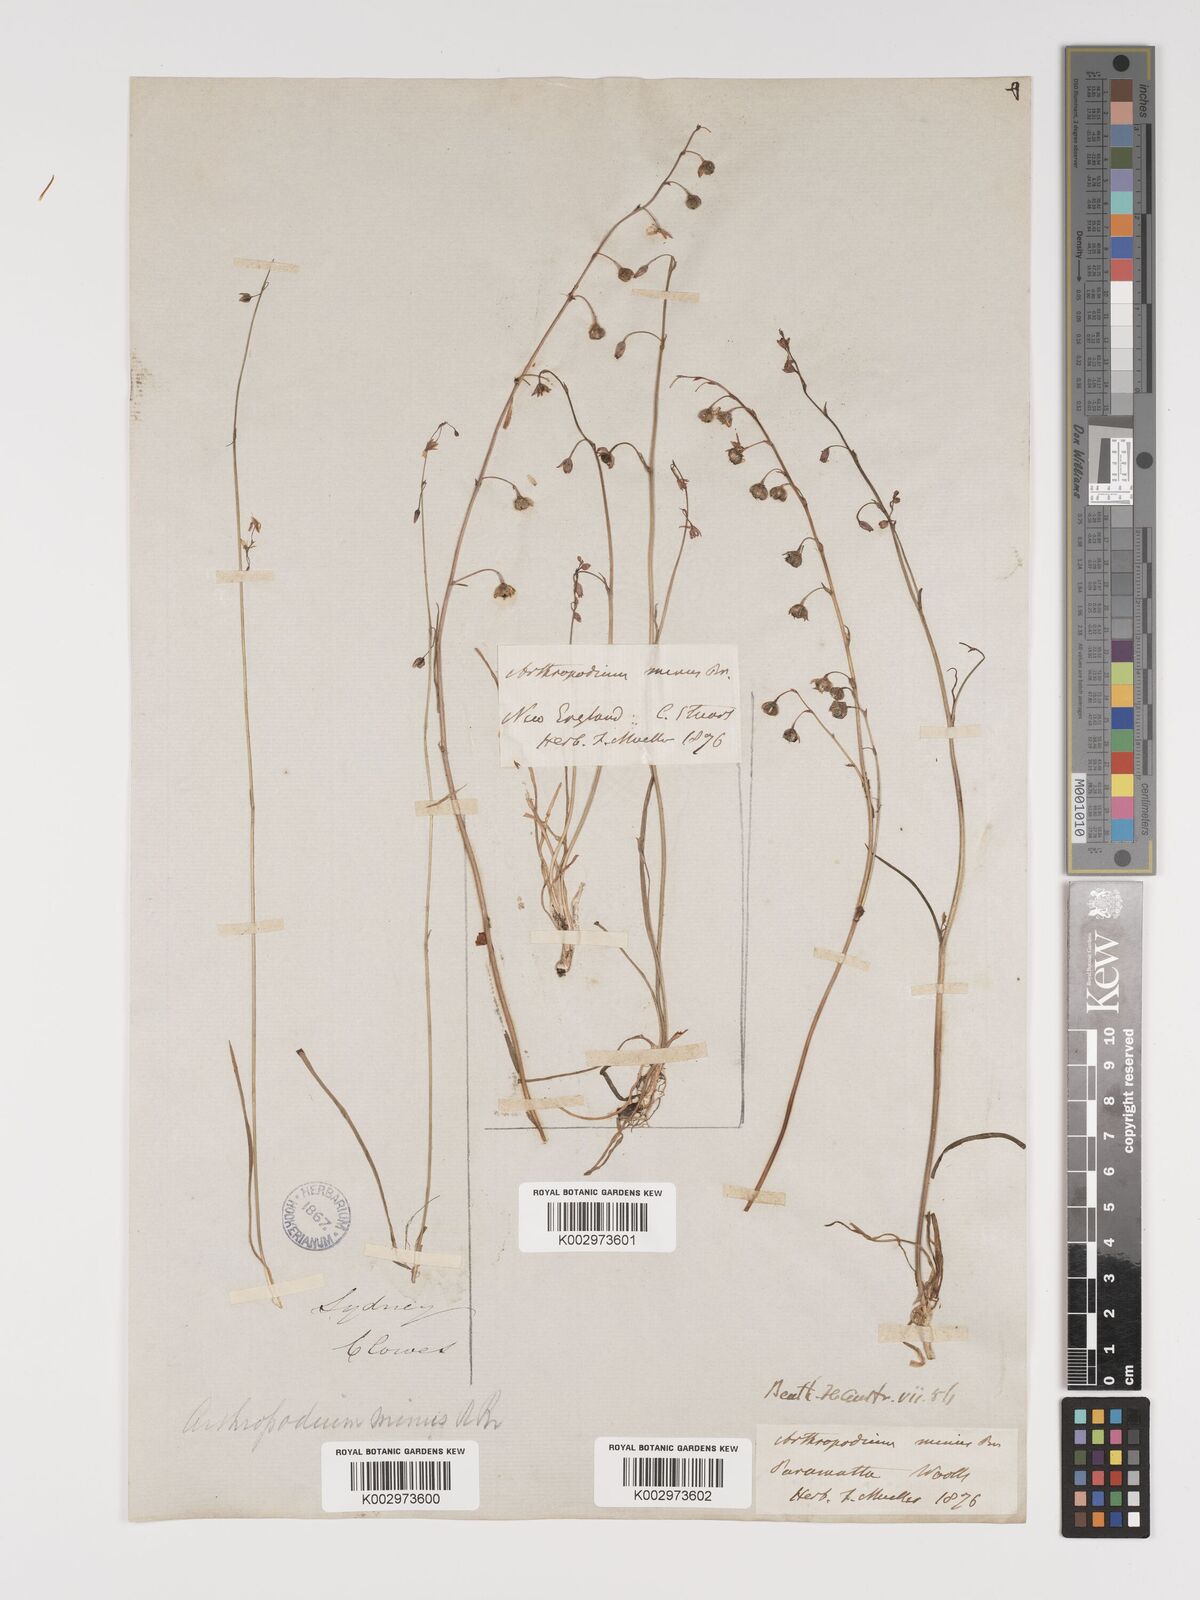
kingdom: Plantae
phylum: Tracheophyta
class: Liliopsida
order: Asparagales
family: Asparagaceae
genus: Arthropodium
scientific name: Arthropodium minus
